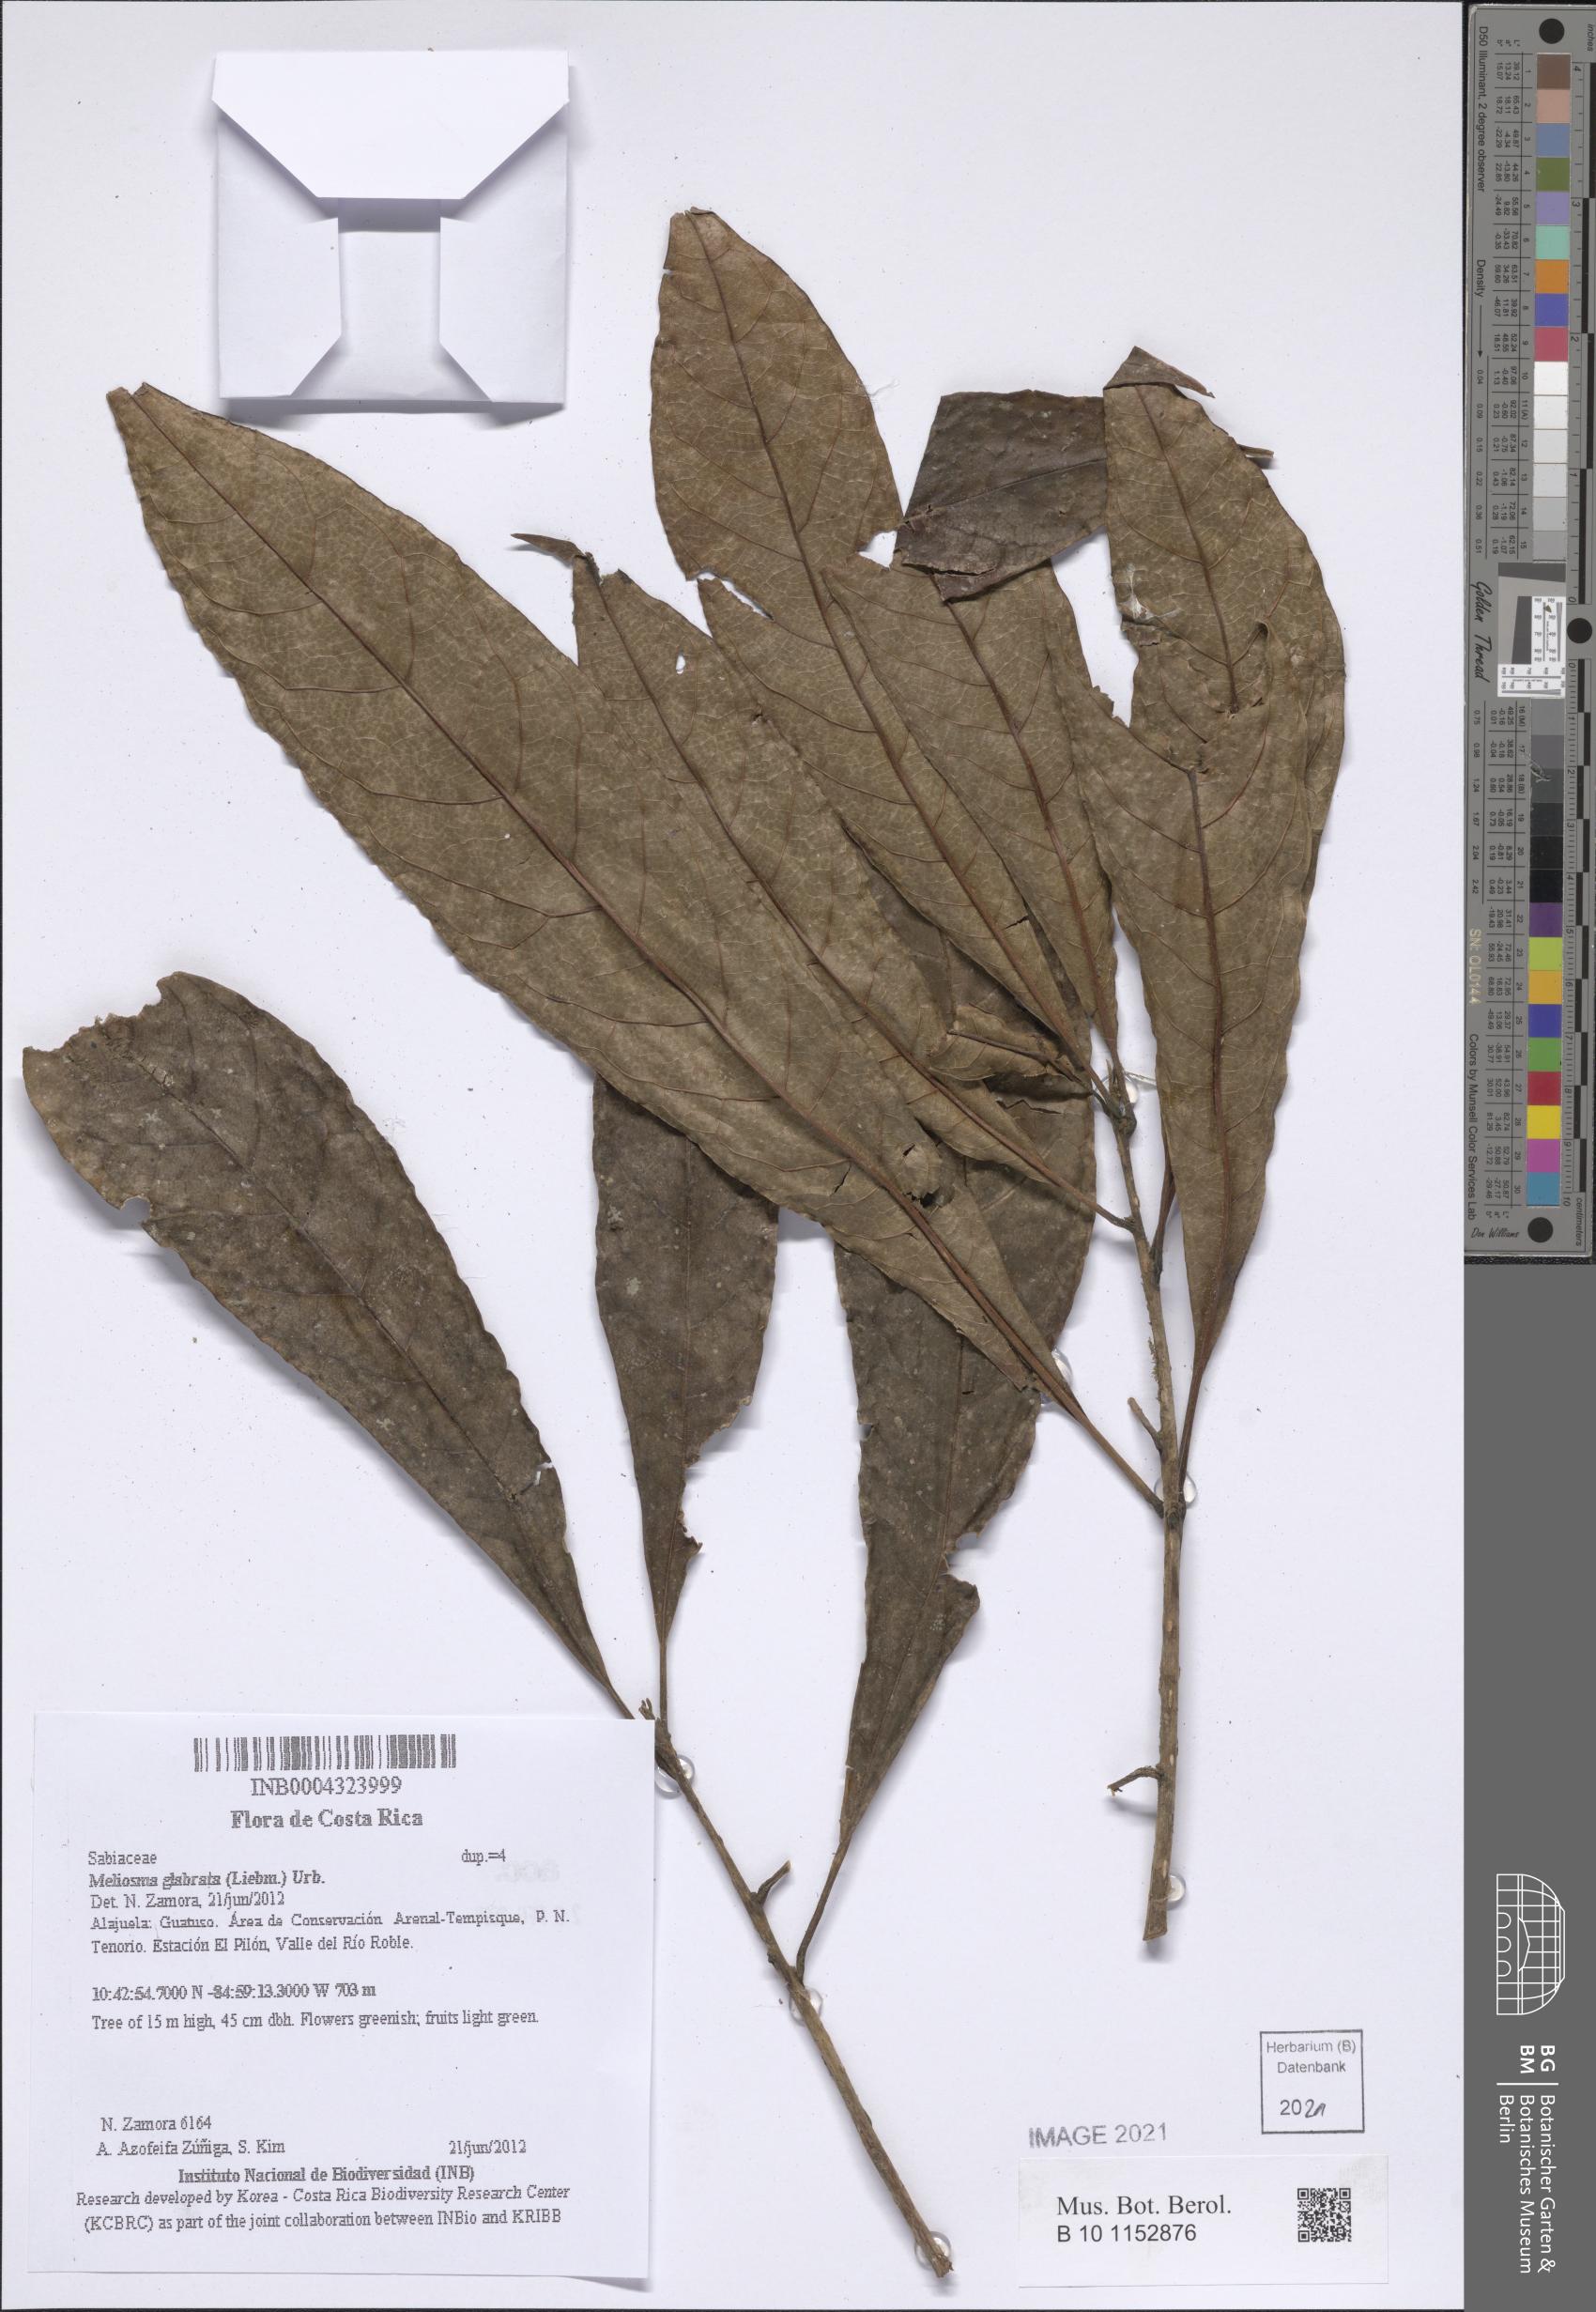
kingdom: Plantae
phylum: Tracheophyta
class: Magnoliopsida
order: Proteales
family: Sabiaceae
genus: Meliosma
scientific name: Meliosma glabrata
